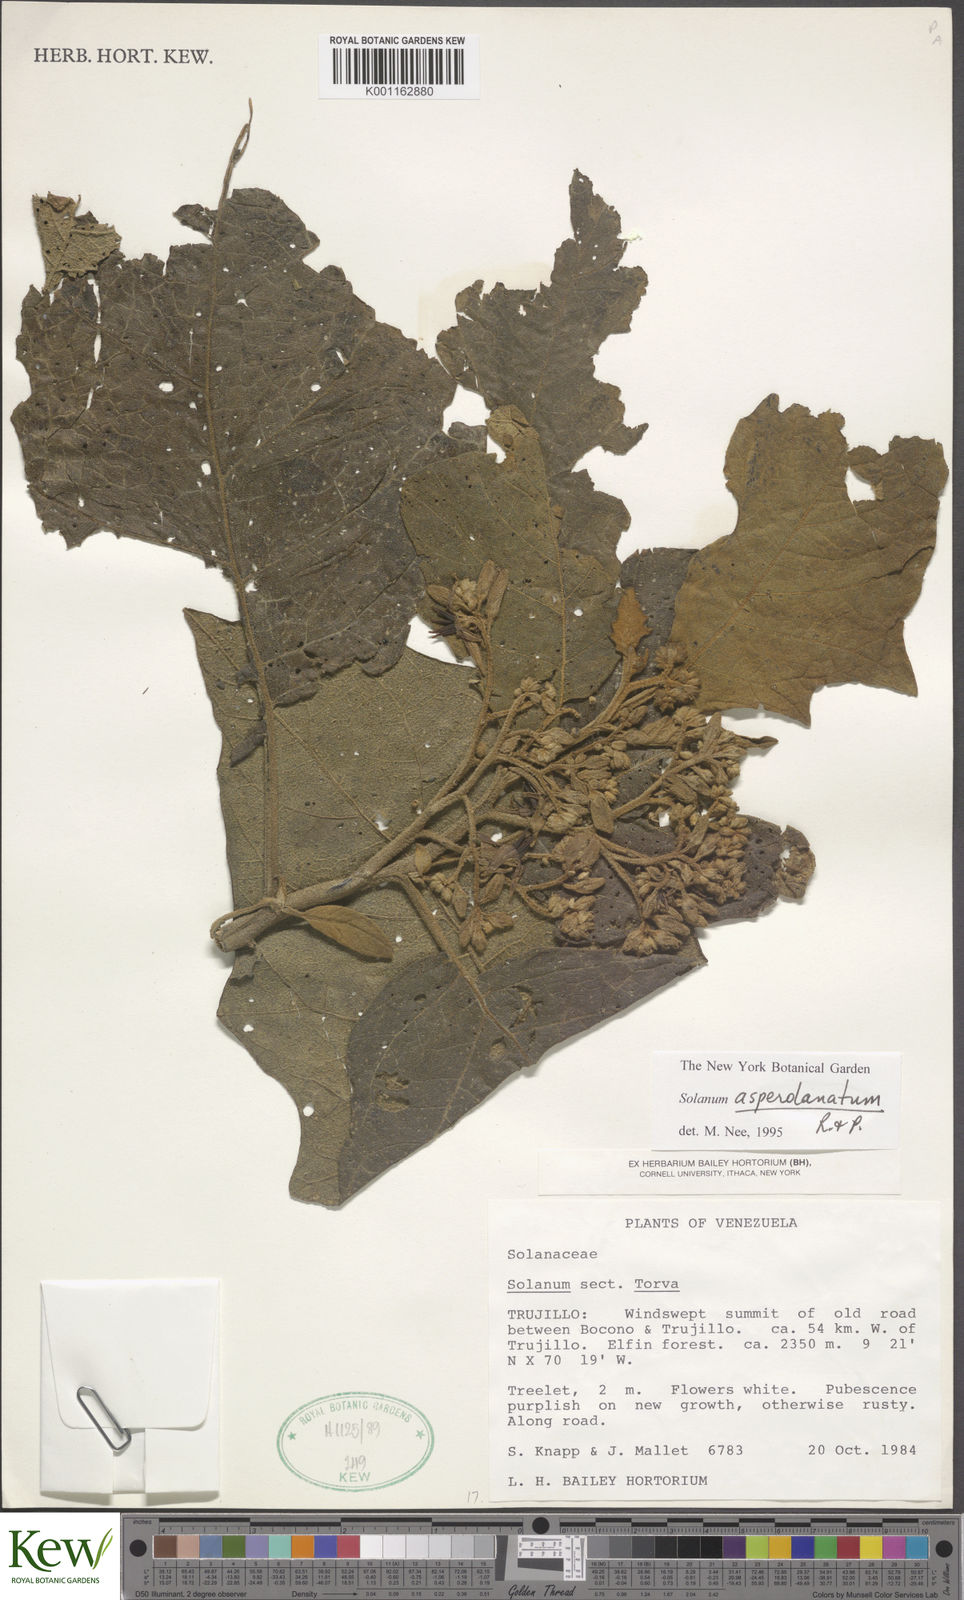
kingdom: Plantae
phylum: Tracheophyta
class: Magnoliopsida
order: Solanales
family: Solanaceae
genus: Solanum
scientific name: Solanum hirtum
